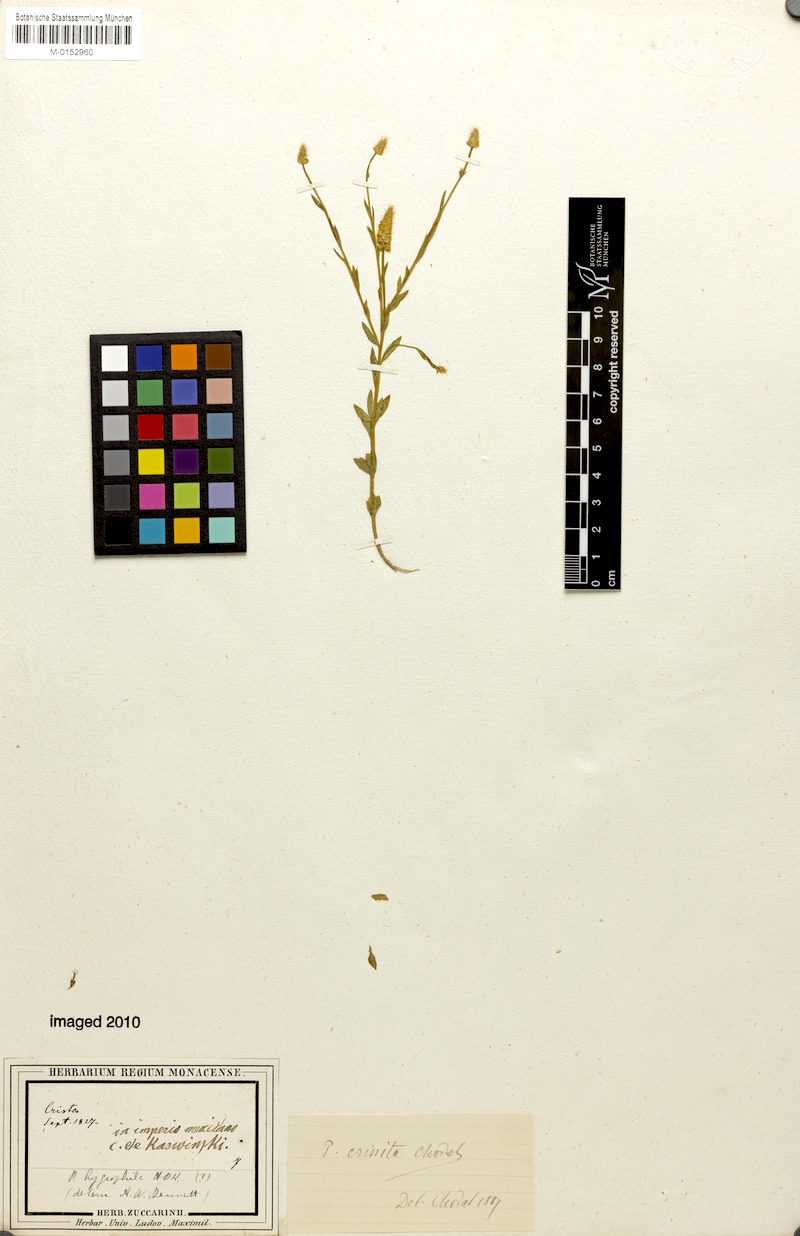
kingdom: Plantae
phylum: Tracheophyta
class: Magnoliopsida
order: Fabales
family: Polygalaceae
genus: Polygala
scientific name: Polygala crinita
